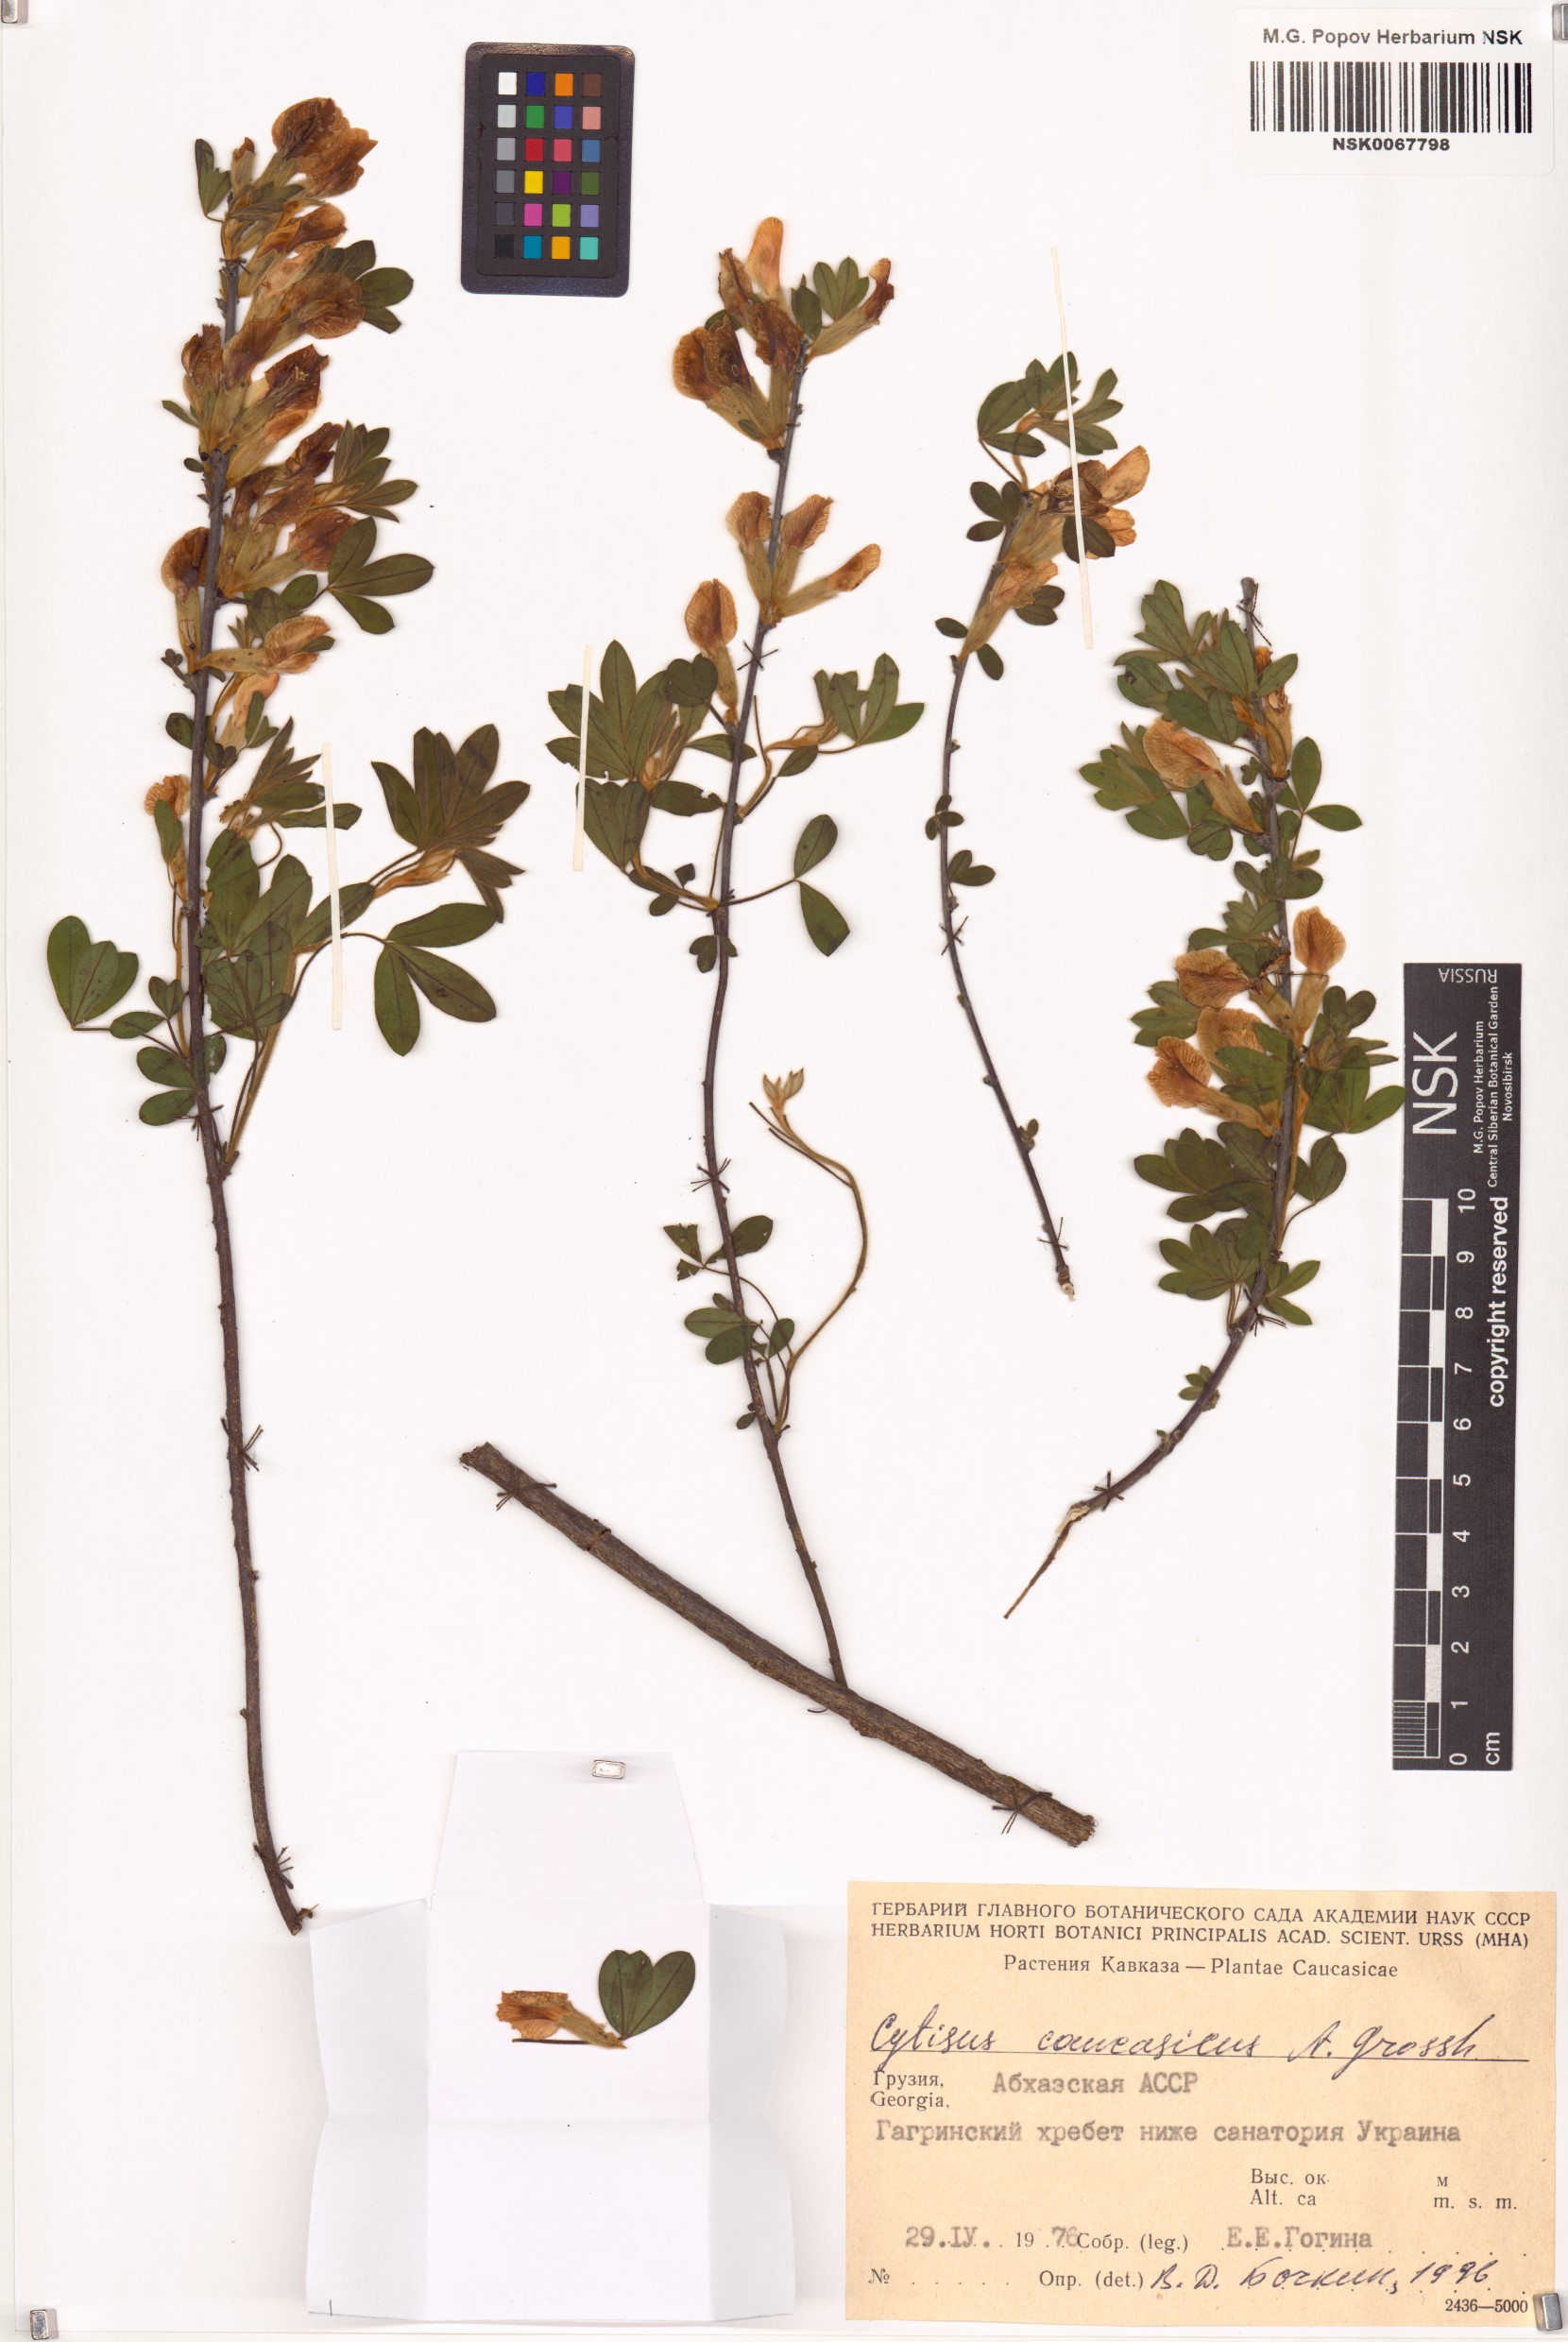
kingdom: Plantae
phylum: Tracheophyta
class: Magnoliopsida
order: Fabales
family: Fabaceae
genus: Chamaecytisus
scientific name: Chamaecytisus ruthenicus
